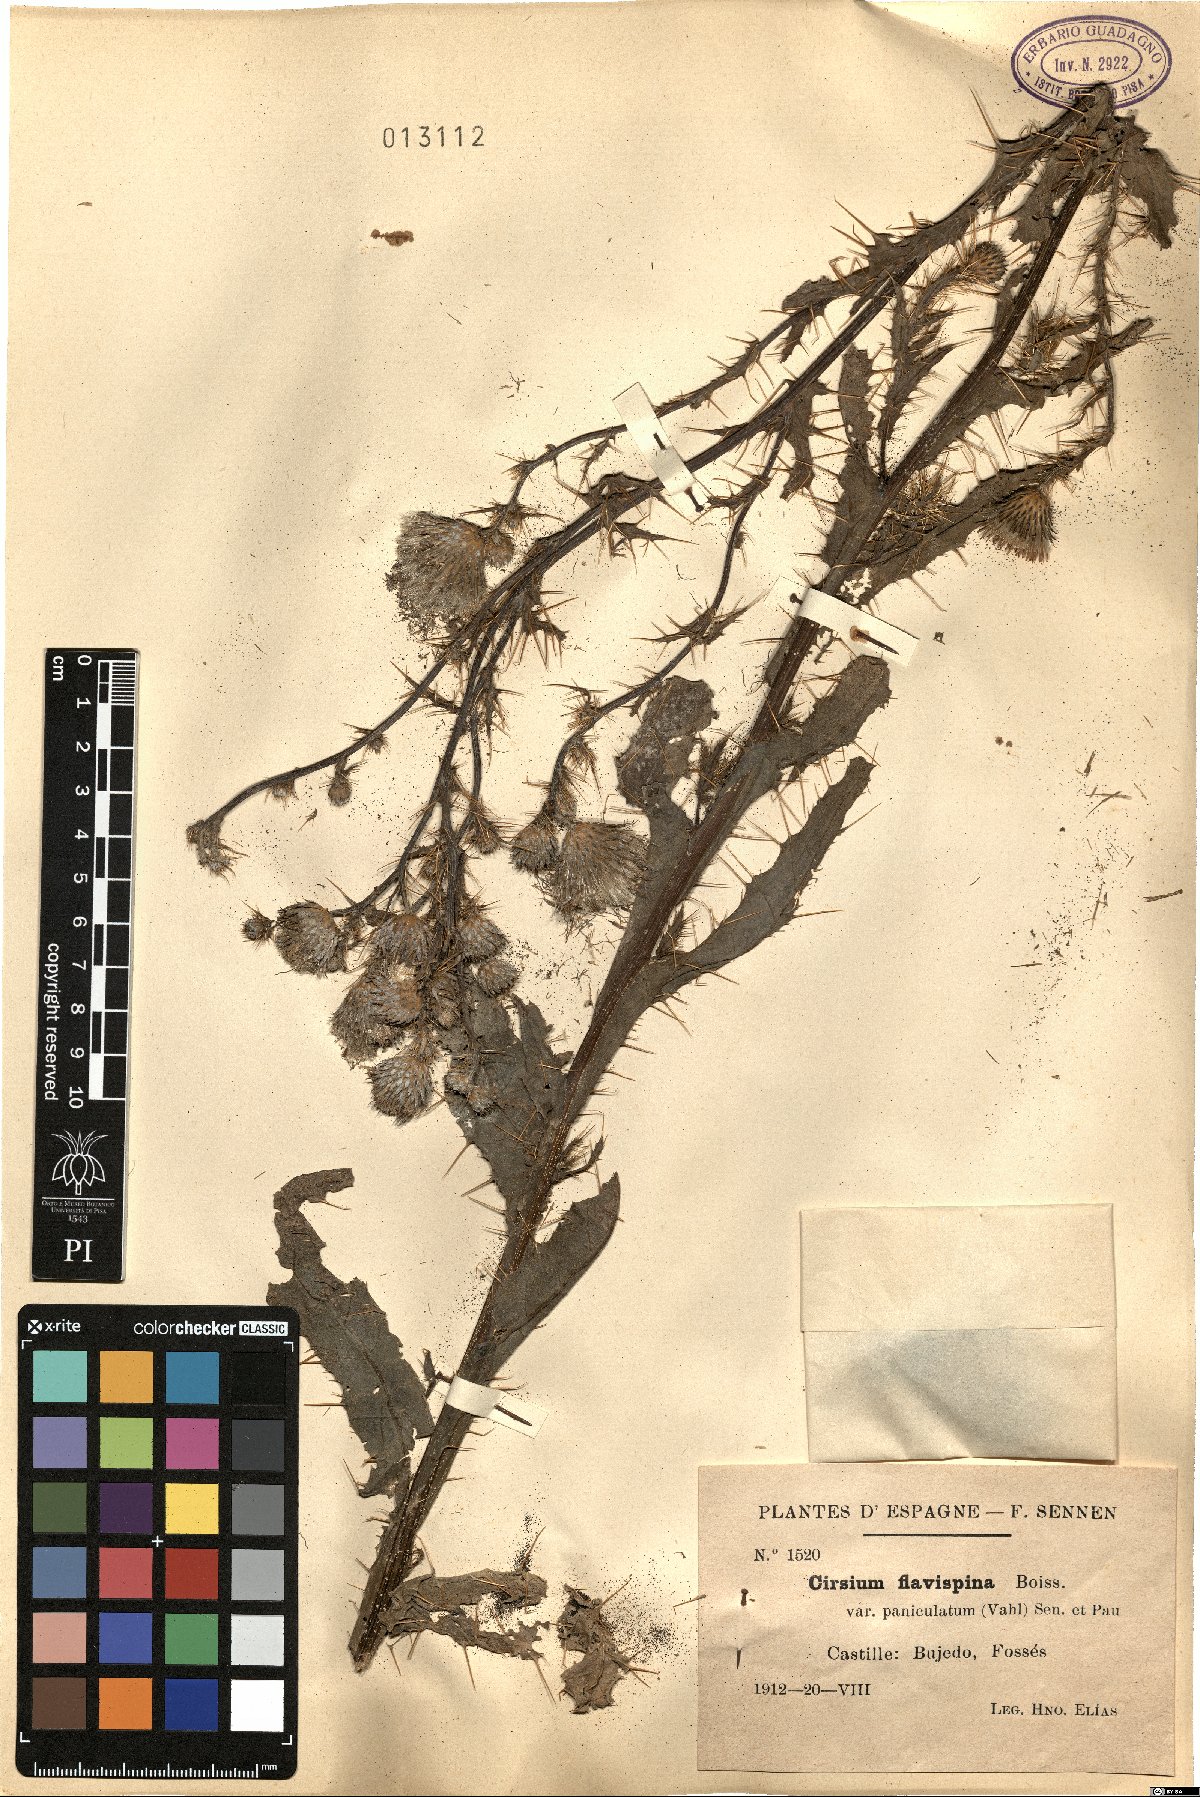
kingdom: Plantae
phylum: Tracheophyta
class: Magnoliopsida
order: Asterales
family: Asteraceae
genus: Cirsium
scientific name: Cirsium pyrenaicum
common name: Pyrenean thistle
